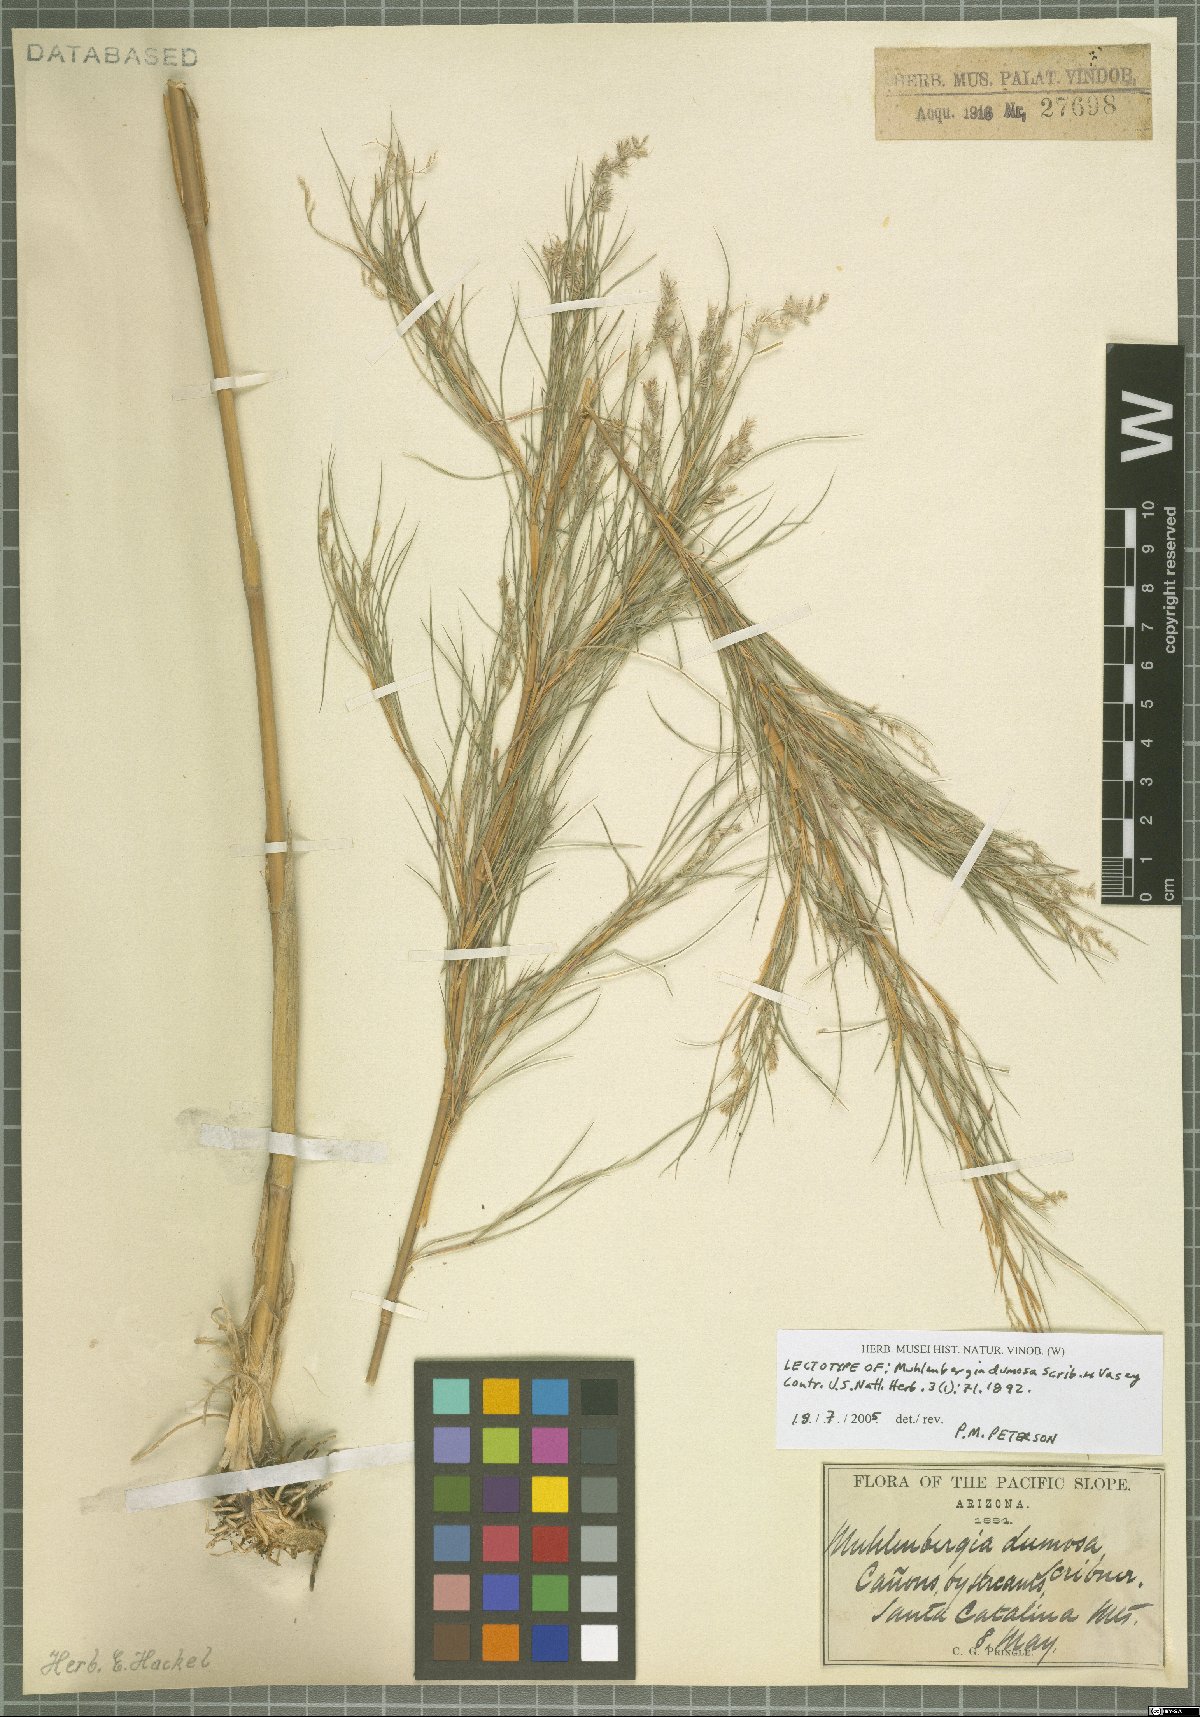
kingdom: Plantae
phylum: Tracheophyta
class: Liliopsida
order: Poales
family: Poaceae
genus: Muhlenbergia
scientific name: Muhlenbergia dumosa
